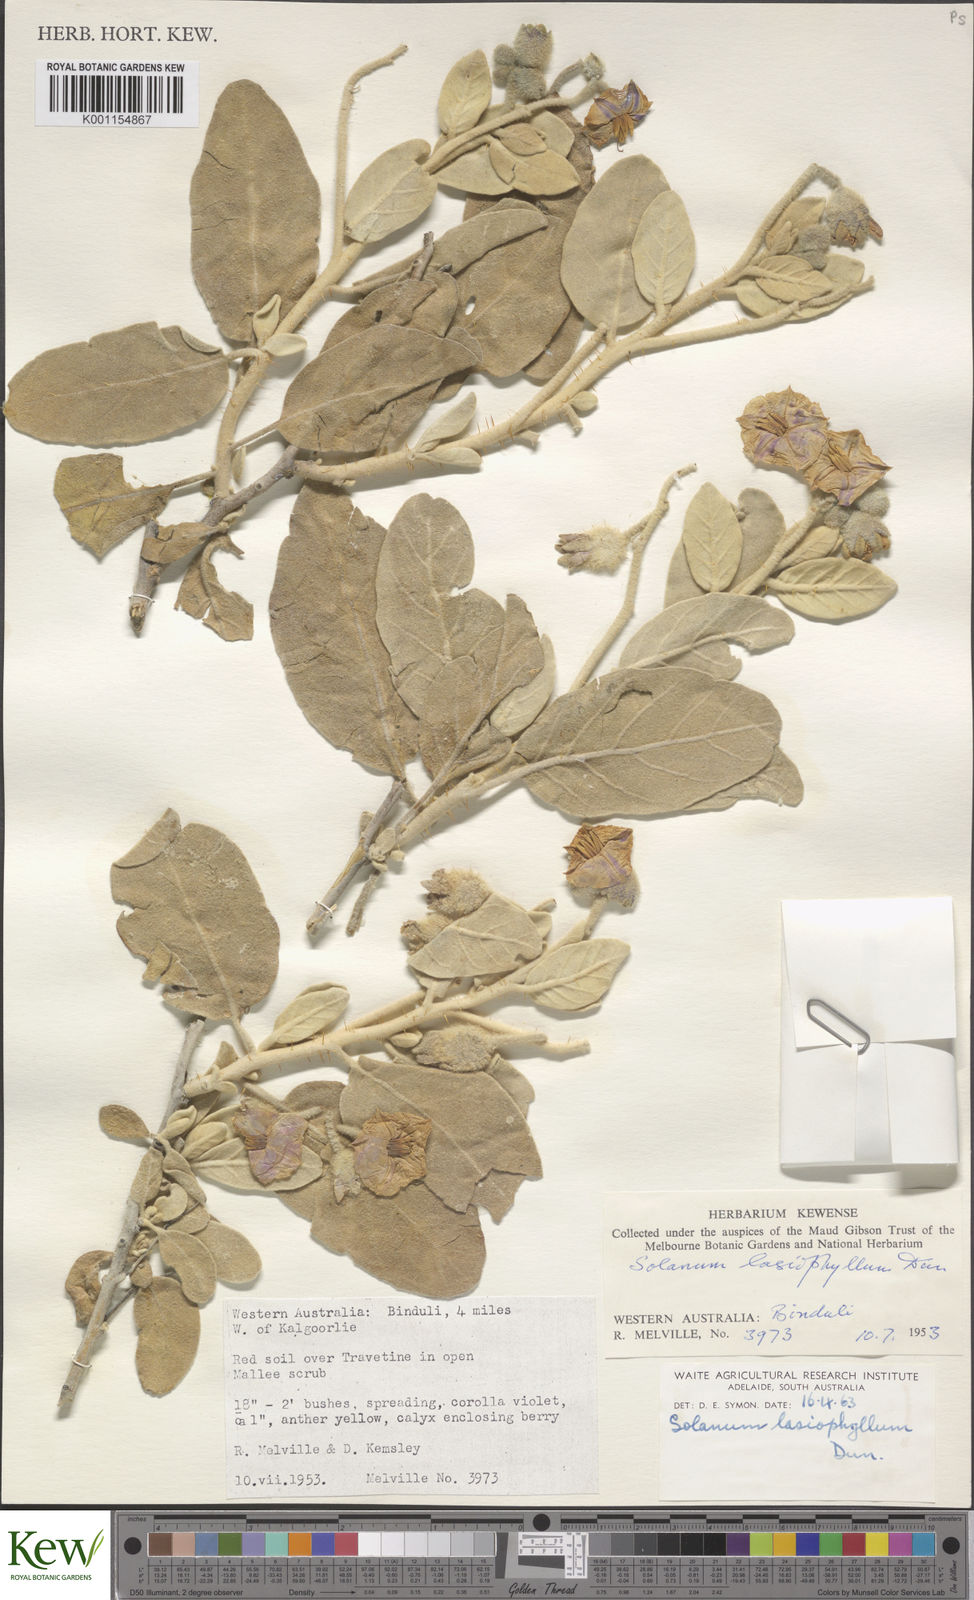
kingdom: Plantae
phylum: Tracheophyta
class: Magnoliopsida
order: Solanales
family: Solanaceae
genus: Solanum
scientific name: Solanum lasiophyllum
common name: Flannelbush
